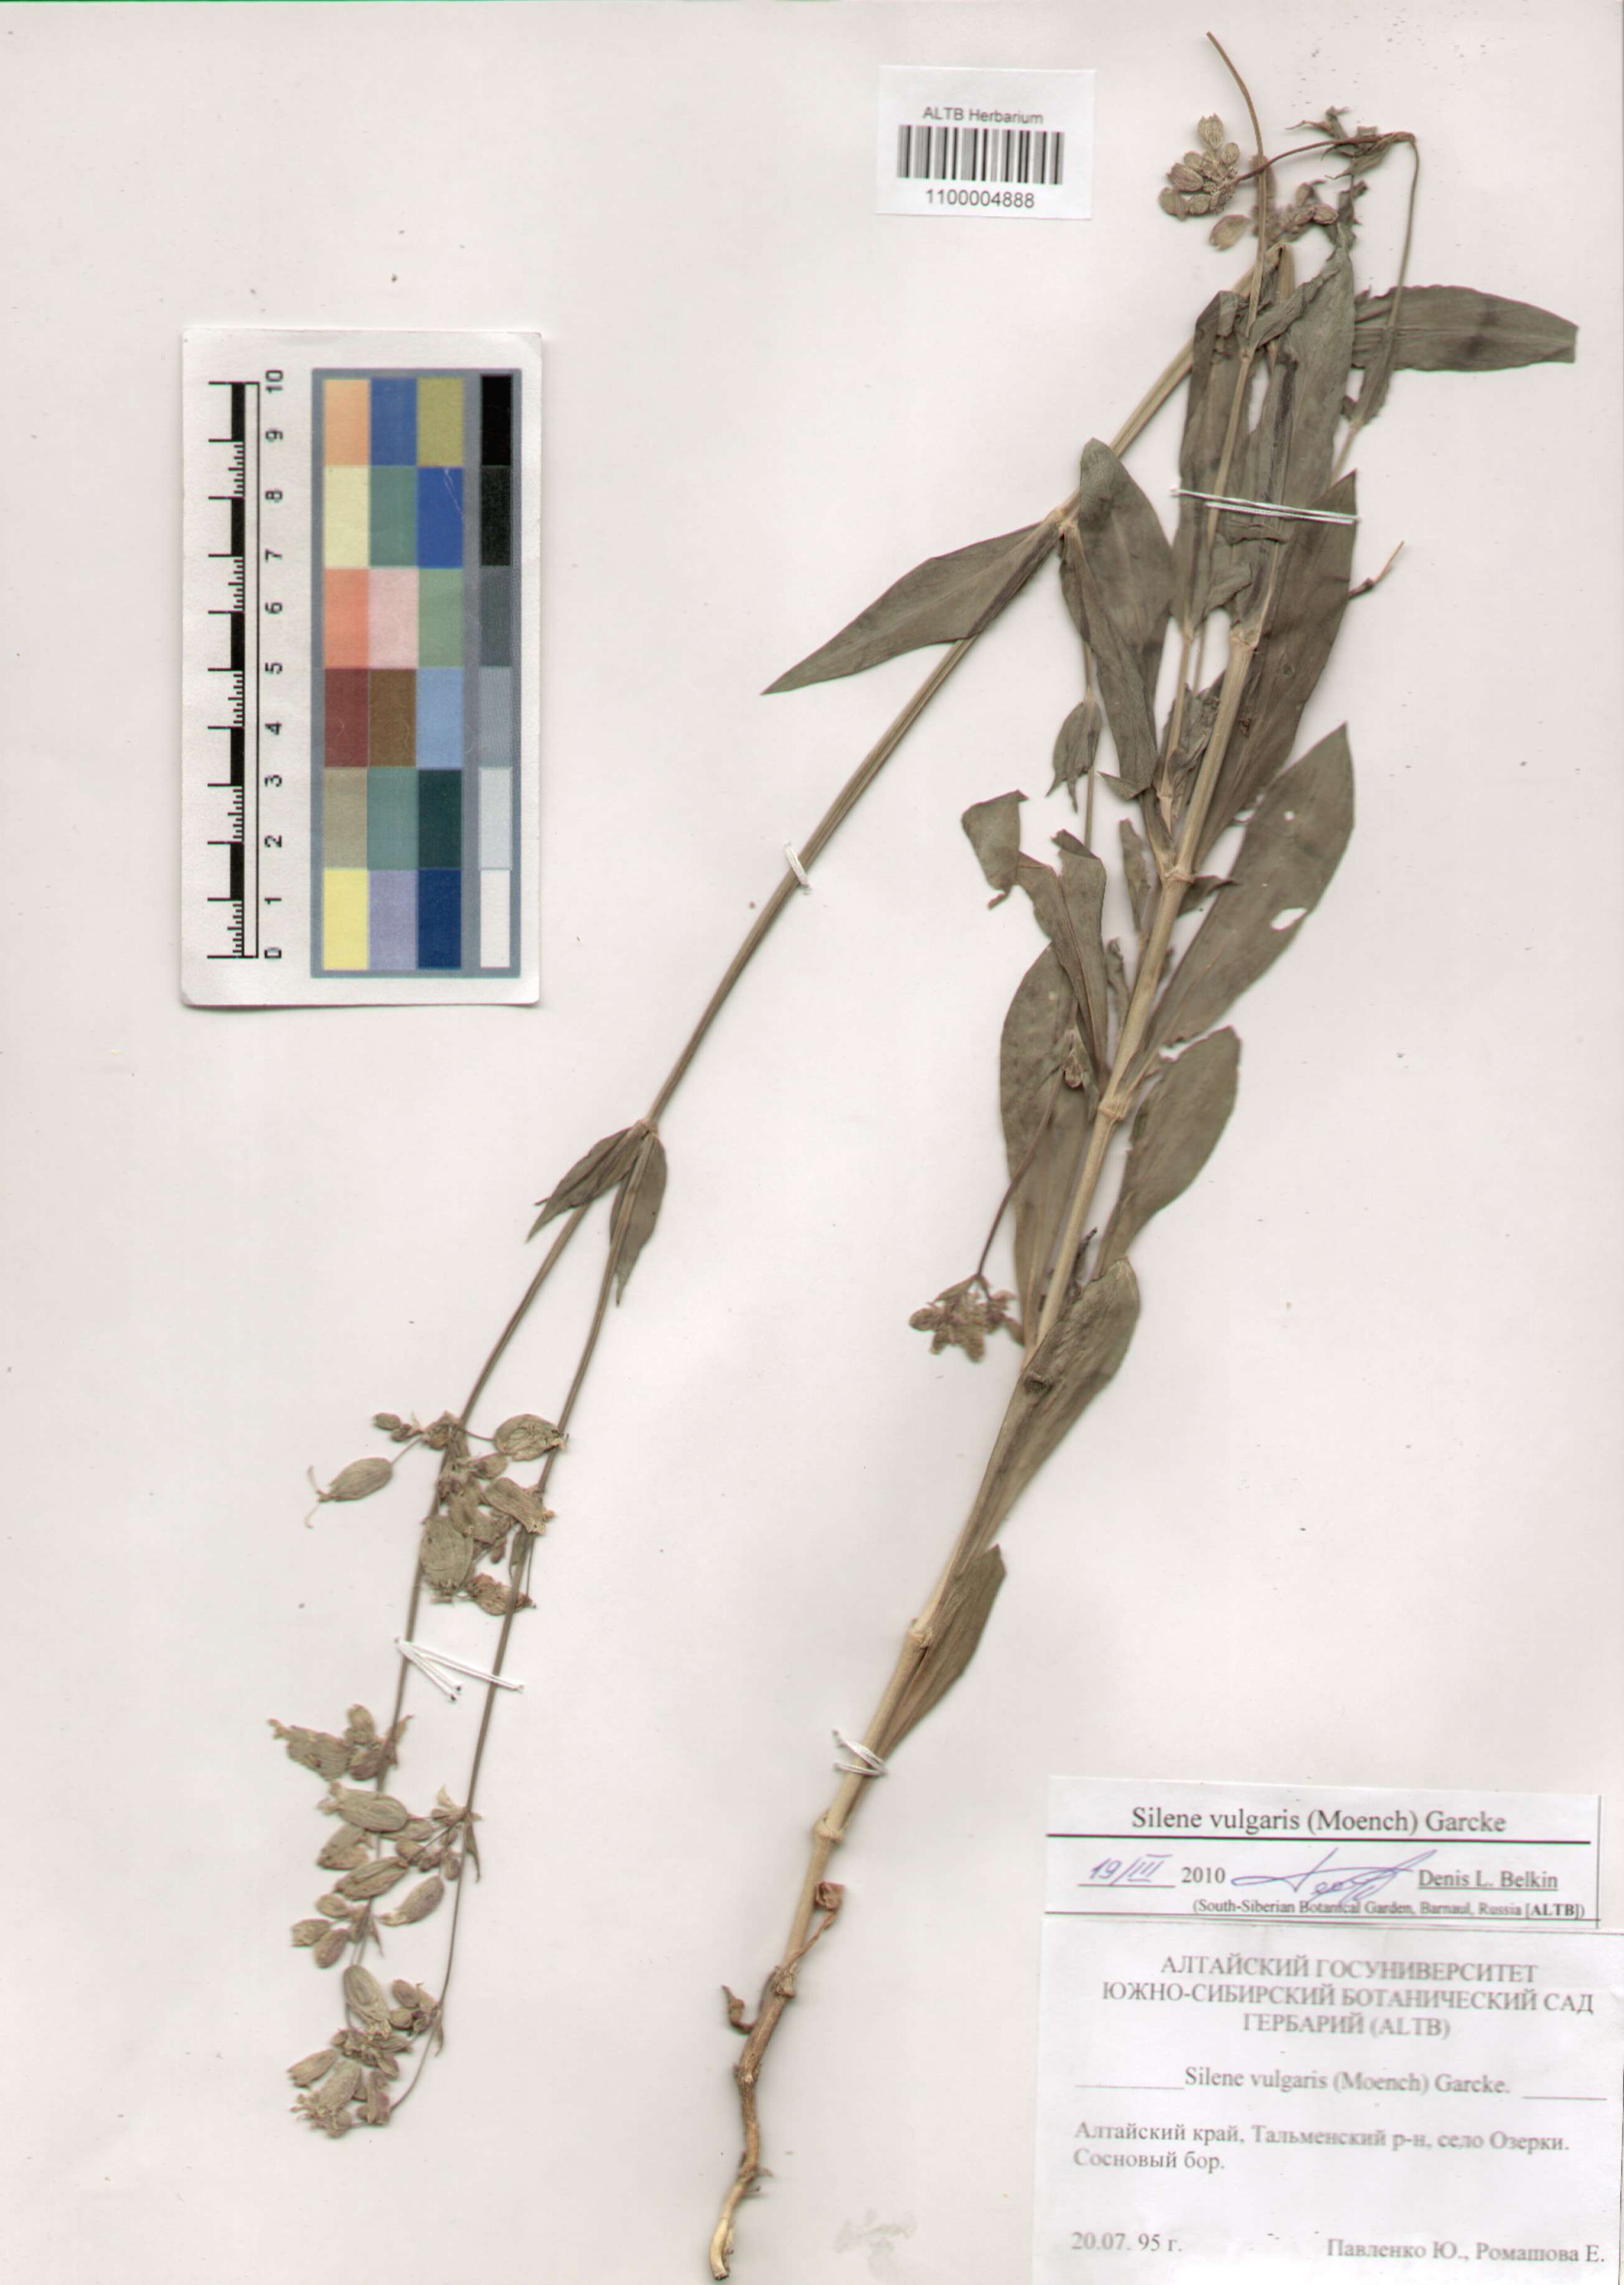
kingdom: Plantae
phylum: Tracheophyta
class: Magnoliopsida
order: Caryophyllales
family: Caryophyllaceae
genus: Silene
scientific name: Silene vulgaris
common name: Bladder campion
